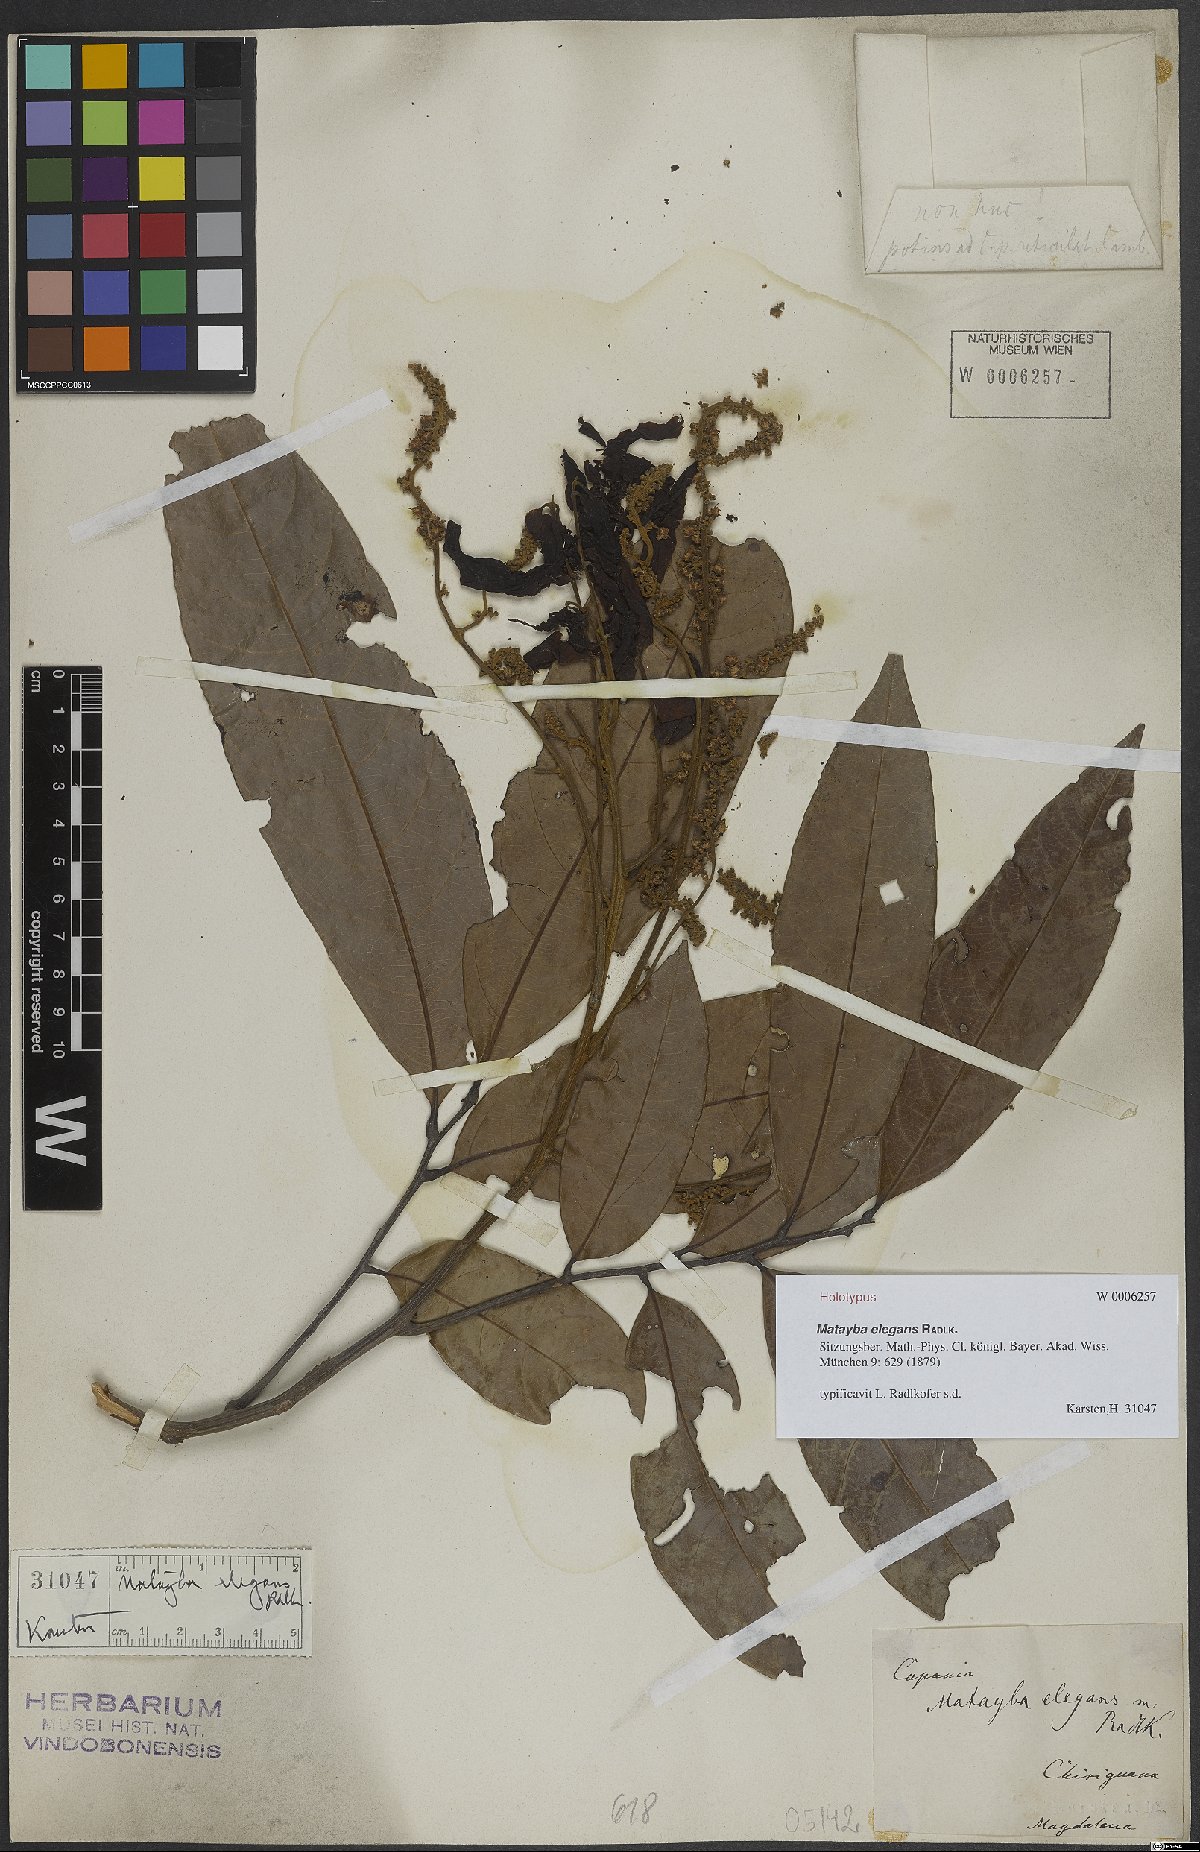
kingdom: Plantae
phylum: Tracheophyta
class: Magnoliopsida
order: Sapindales
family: Sapindaceae
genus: Matayba
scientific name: Matayba elegans
